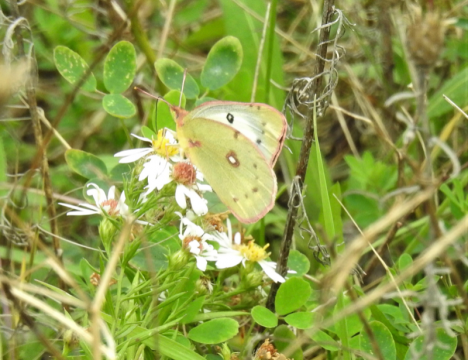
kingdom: Animalia
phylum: Arthropoda
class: Insecta
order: Lepidoptera
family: Pieridae
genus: Colias
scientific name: Colias philodice
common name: Clouded Sulphur
